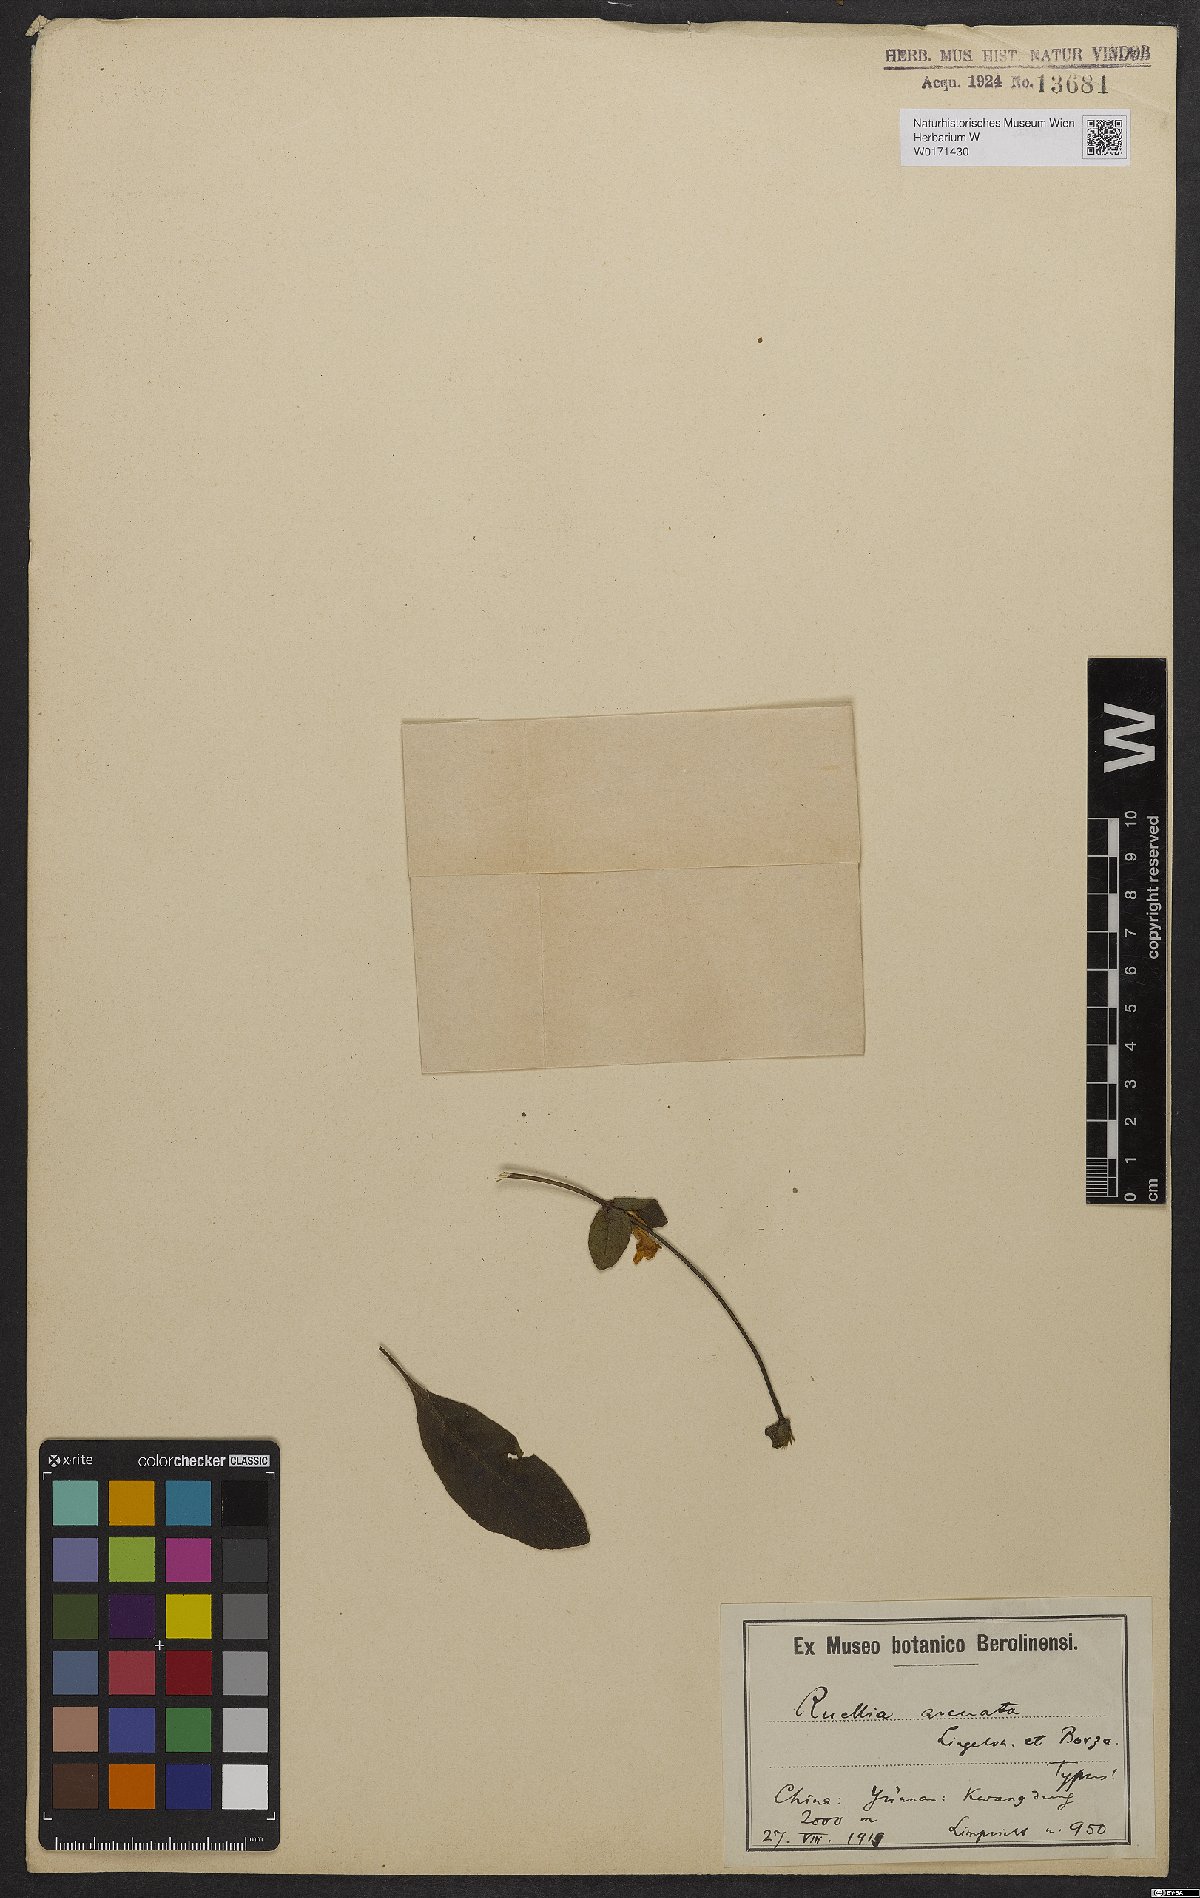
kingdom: Plantae
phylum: Tracheophyta
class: Magnoliopsida
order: Lamiales
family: Acanthaceae
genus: Pararuellia
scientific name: Pararuellia delavayana
